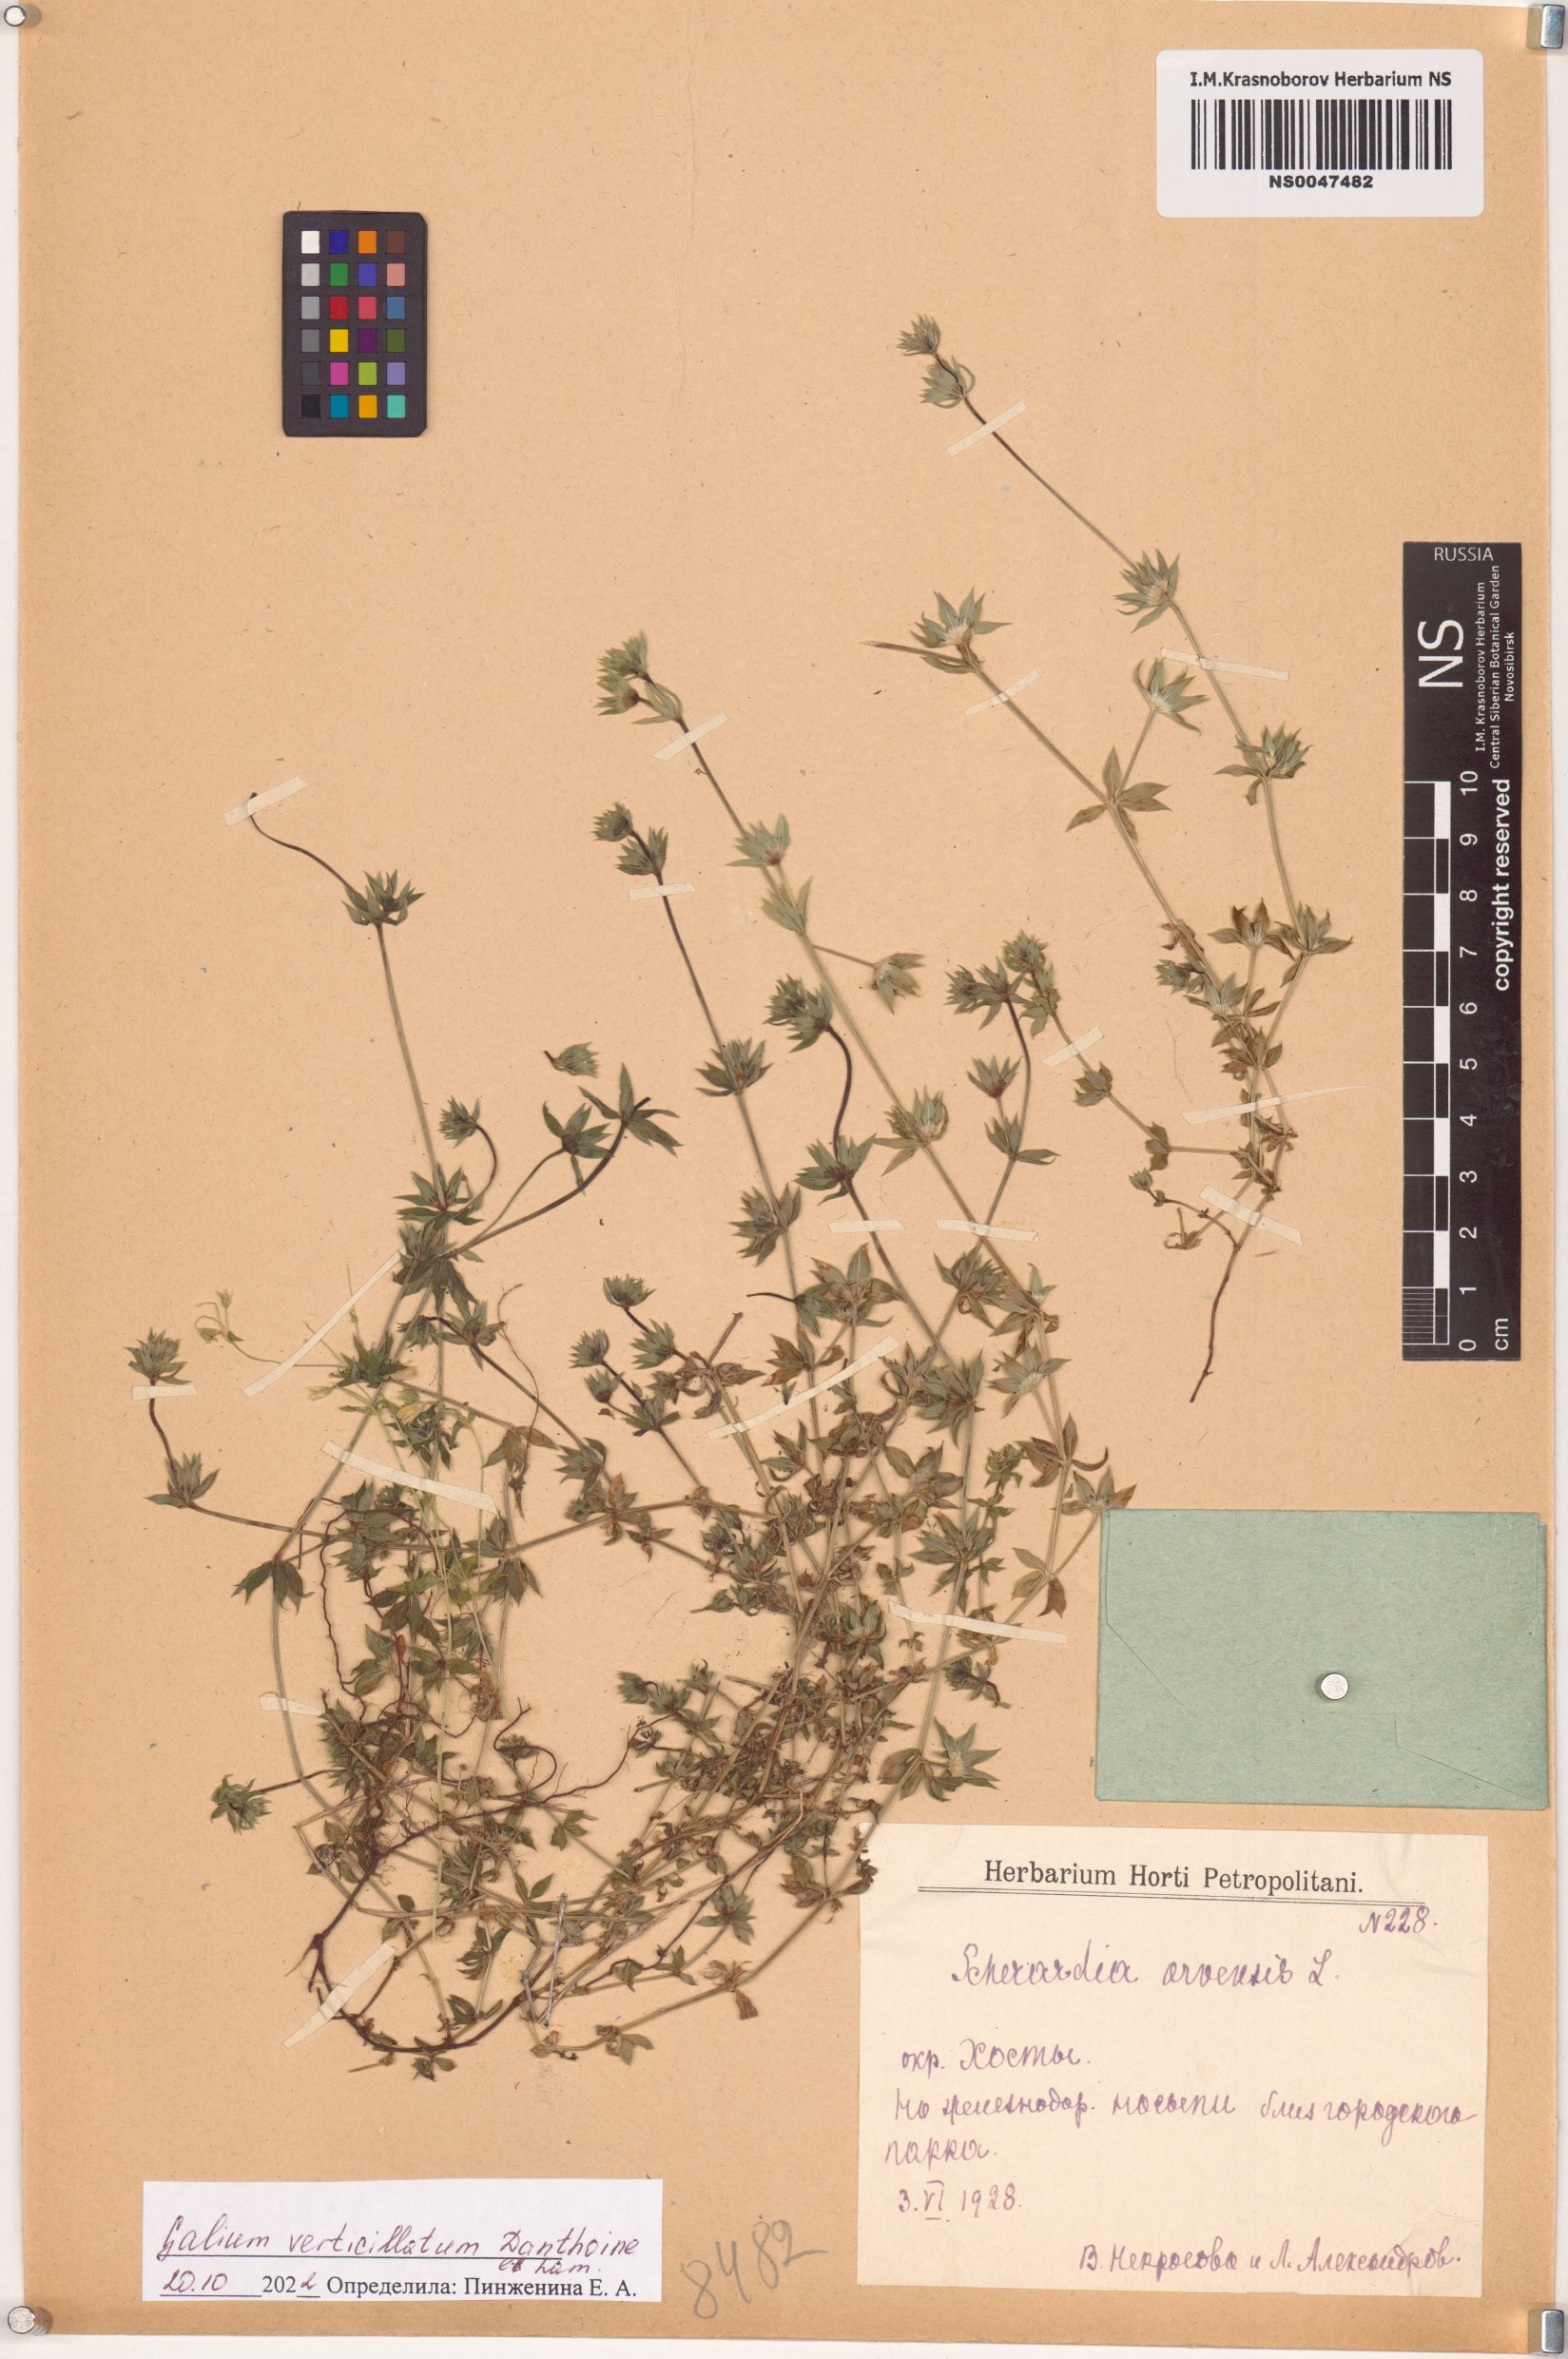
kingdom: Plantae
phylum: Tracheophyta
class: Magnoliopsida
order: Gentianales
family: Rubiaceae
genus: Galium
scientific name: Galium verticillatum
